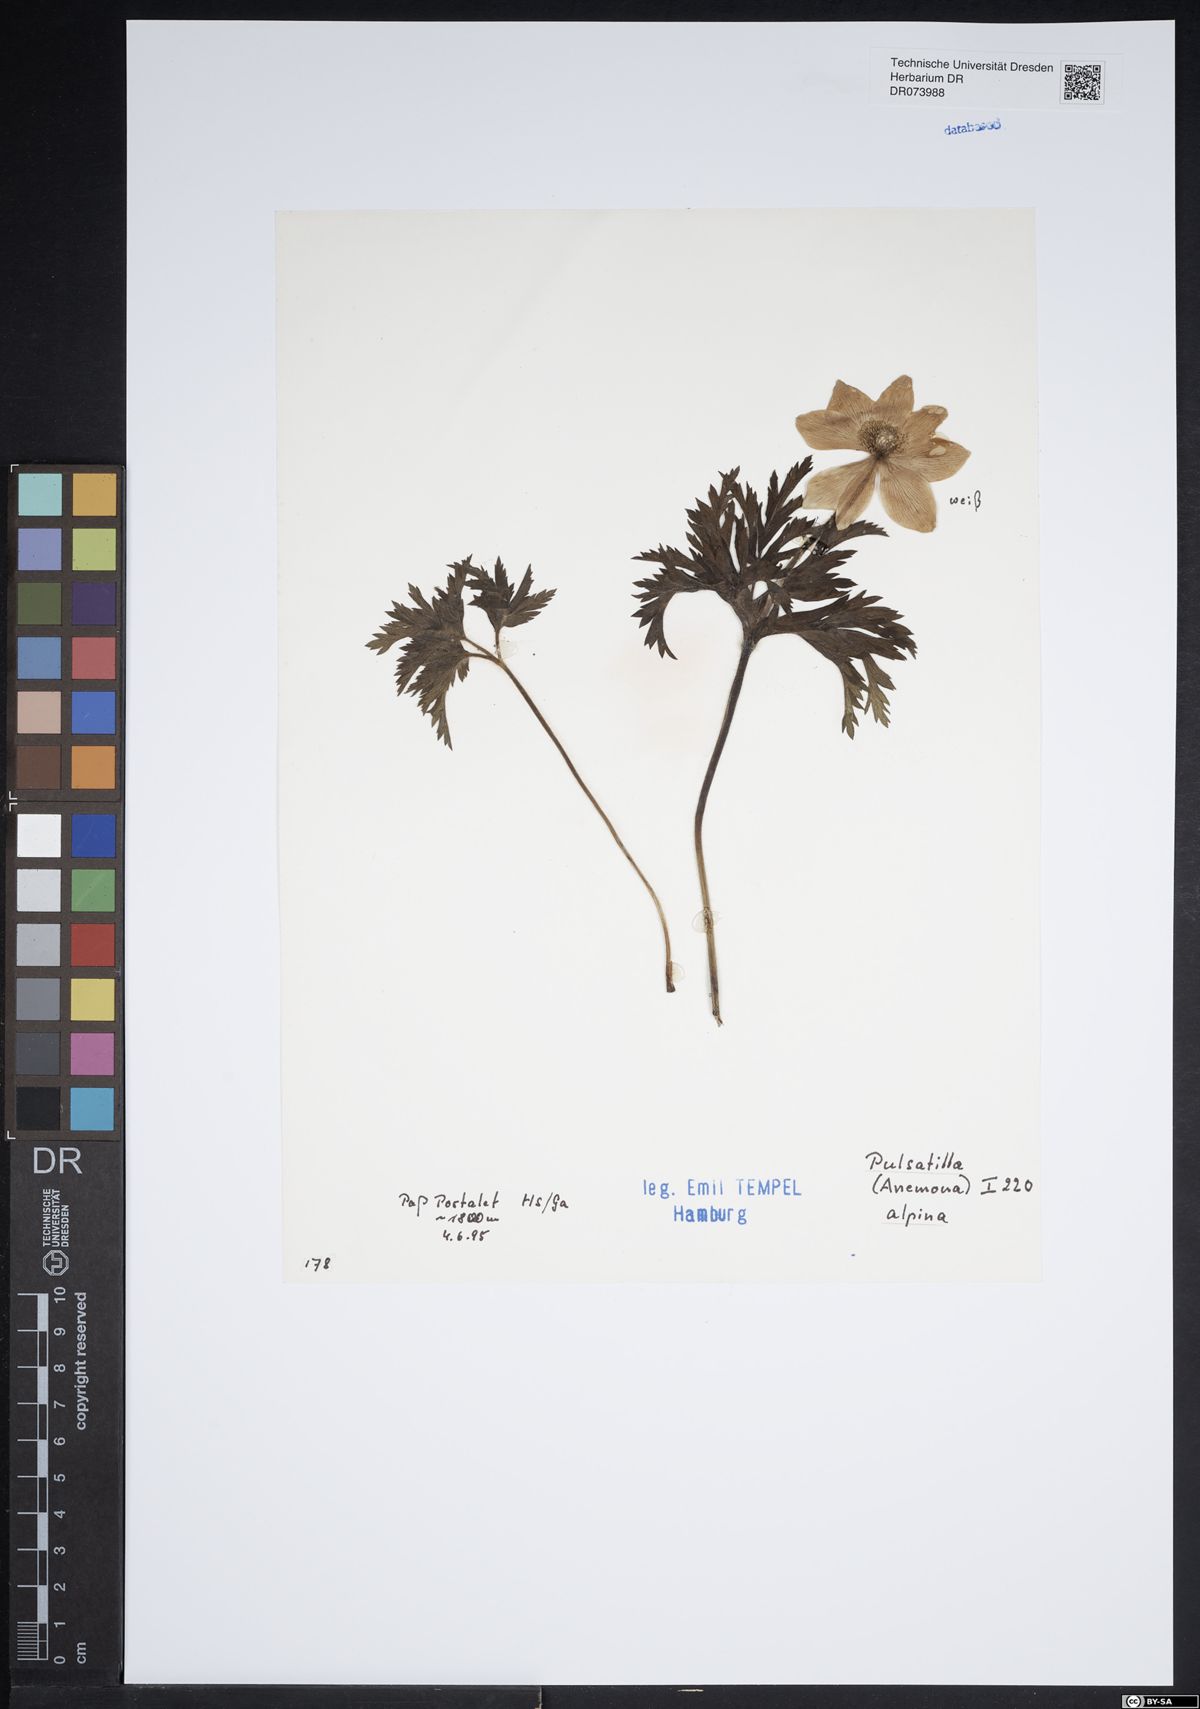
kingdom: Plantae
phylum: Tracheophyta
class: Magnoliopsida
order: Ranunculales
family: Ranunculaceae
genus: Pulsatilla
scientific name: Pulsatilla alpina
